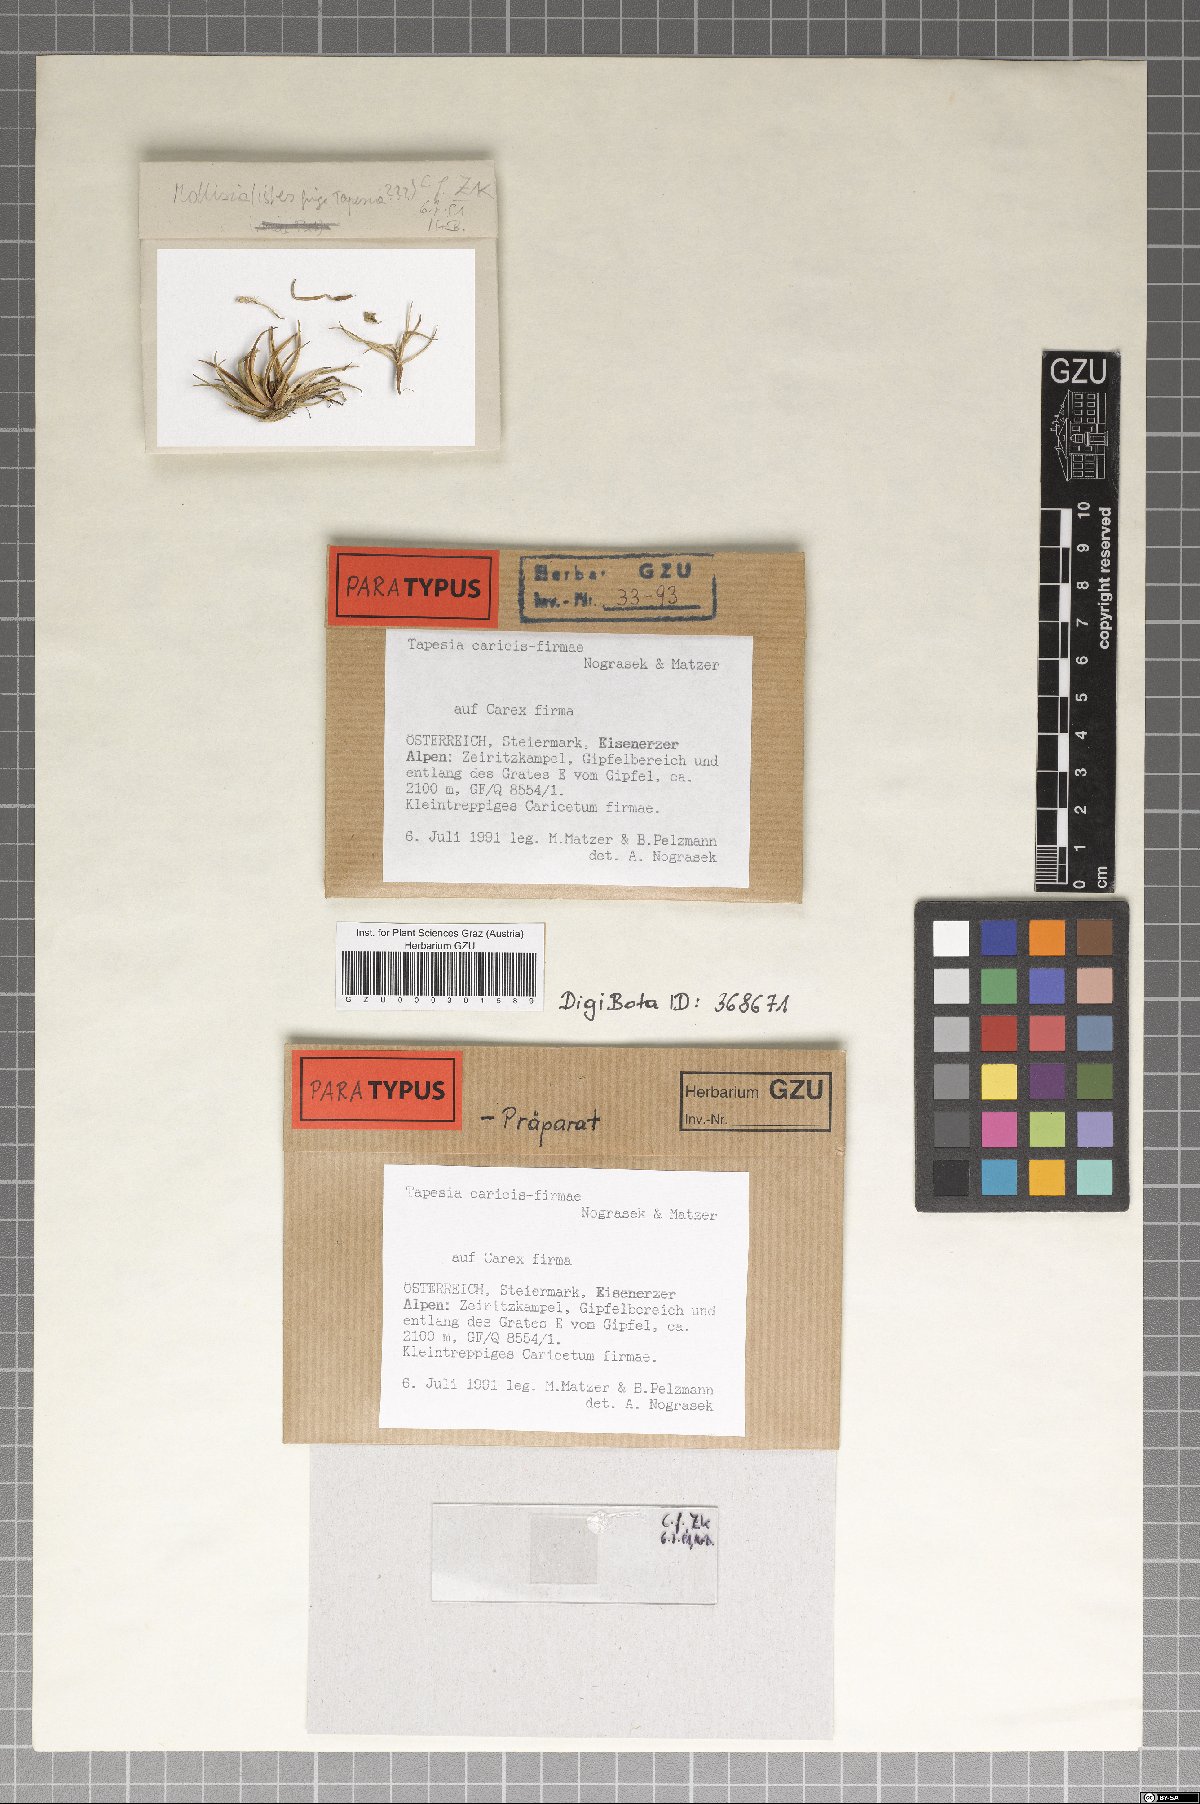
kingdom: Fungi
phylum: Ascomycota
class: Leotiomycetes
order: Helotiales
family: Mollisiaceae
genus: Tapesia
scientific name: Tapesia caricis-firmae
